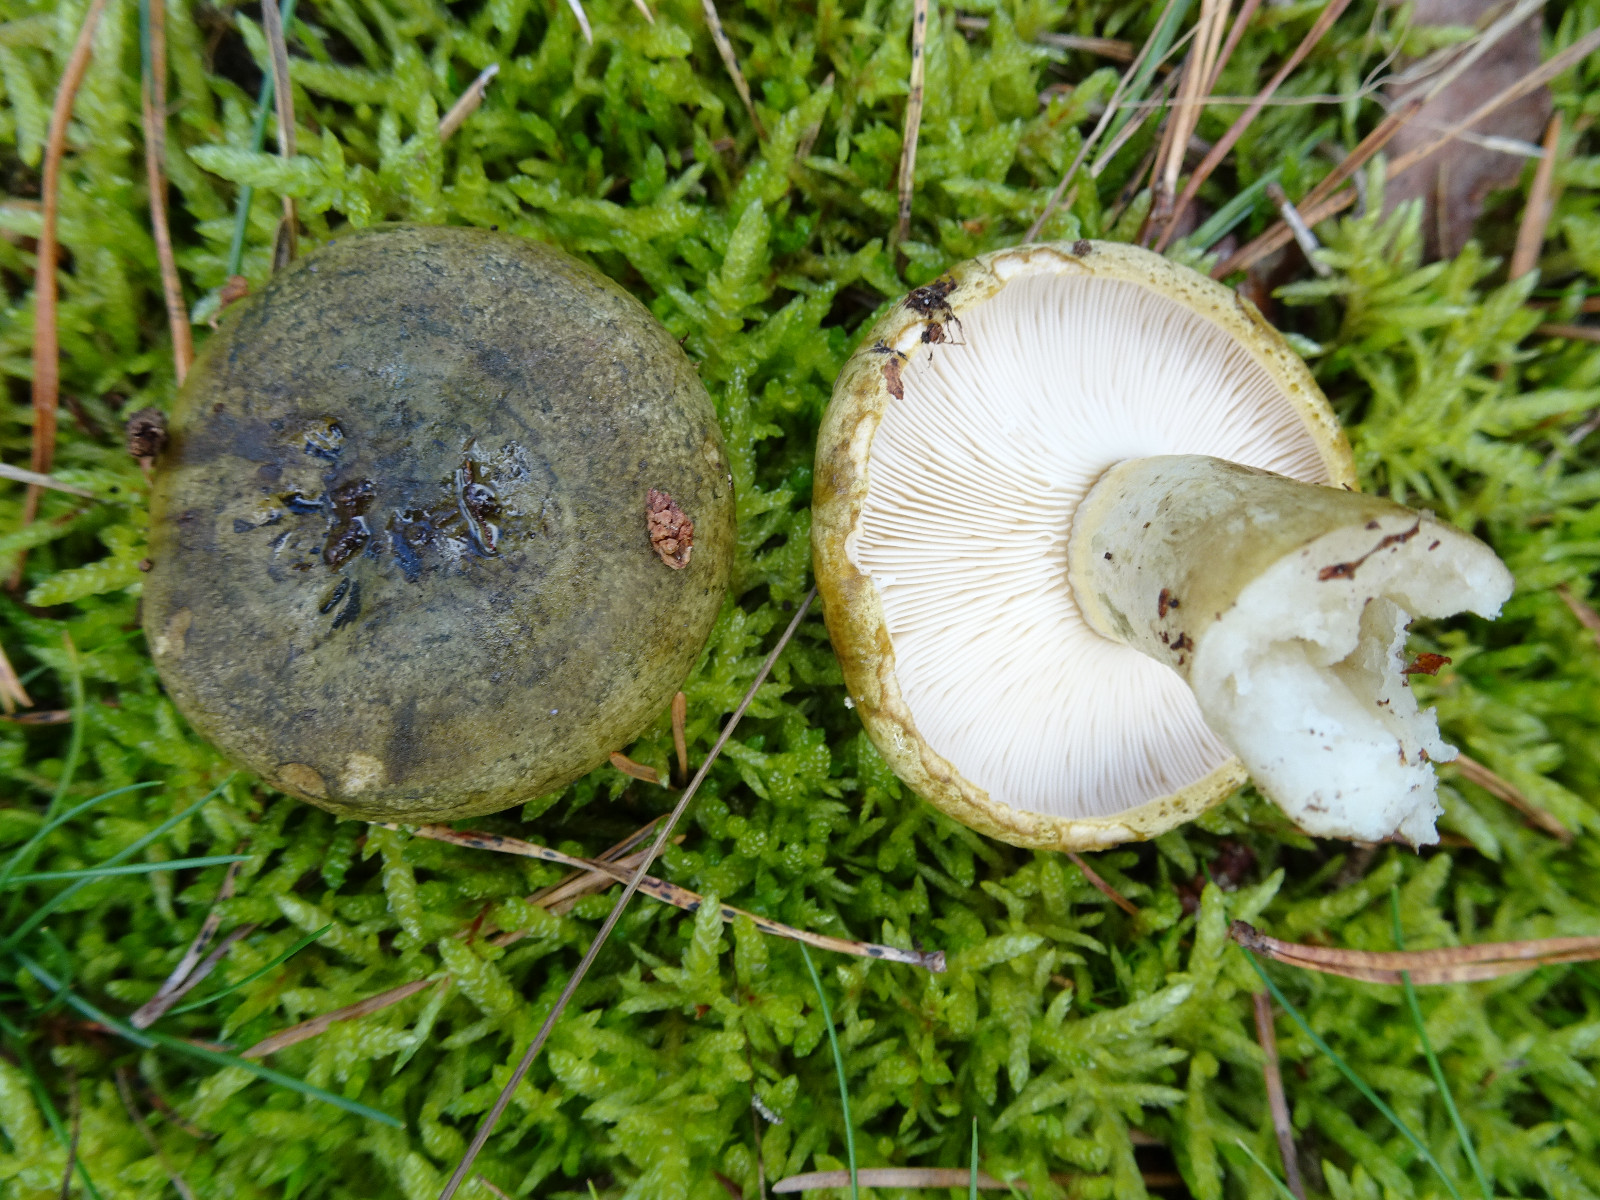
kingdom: Fungi
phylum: Basidiomycota
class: Agaricomycetes
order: Russulales
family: Russulaceae
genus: Lactarius
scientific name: Lactarius necator
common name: manddraber-mælkehat
